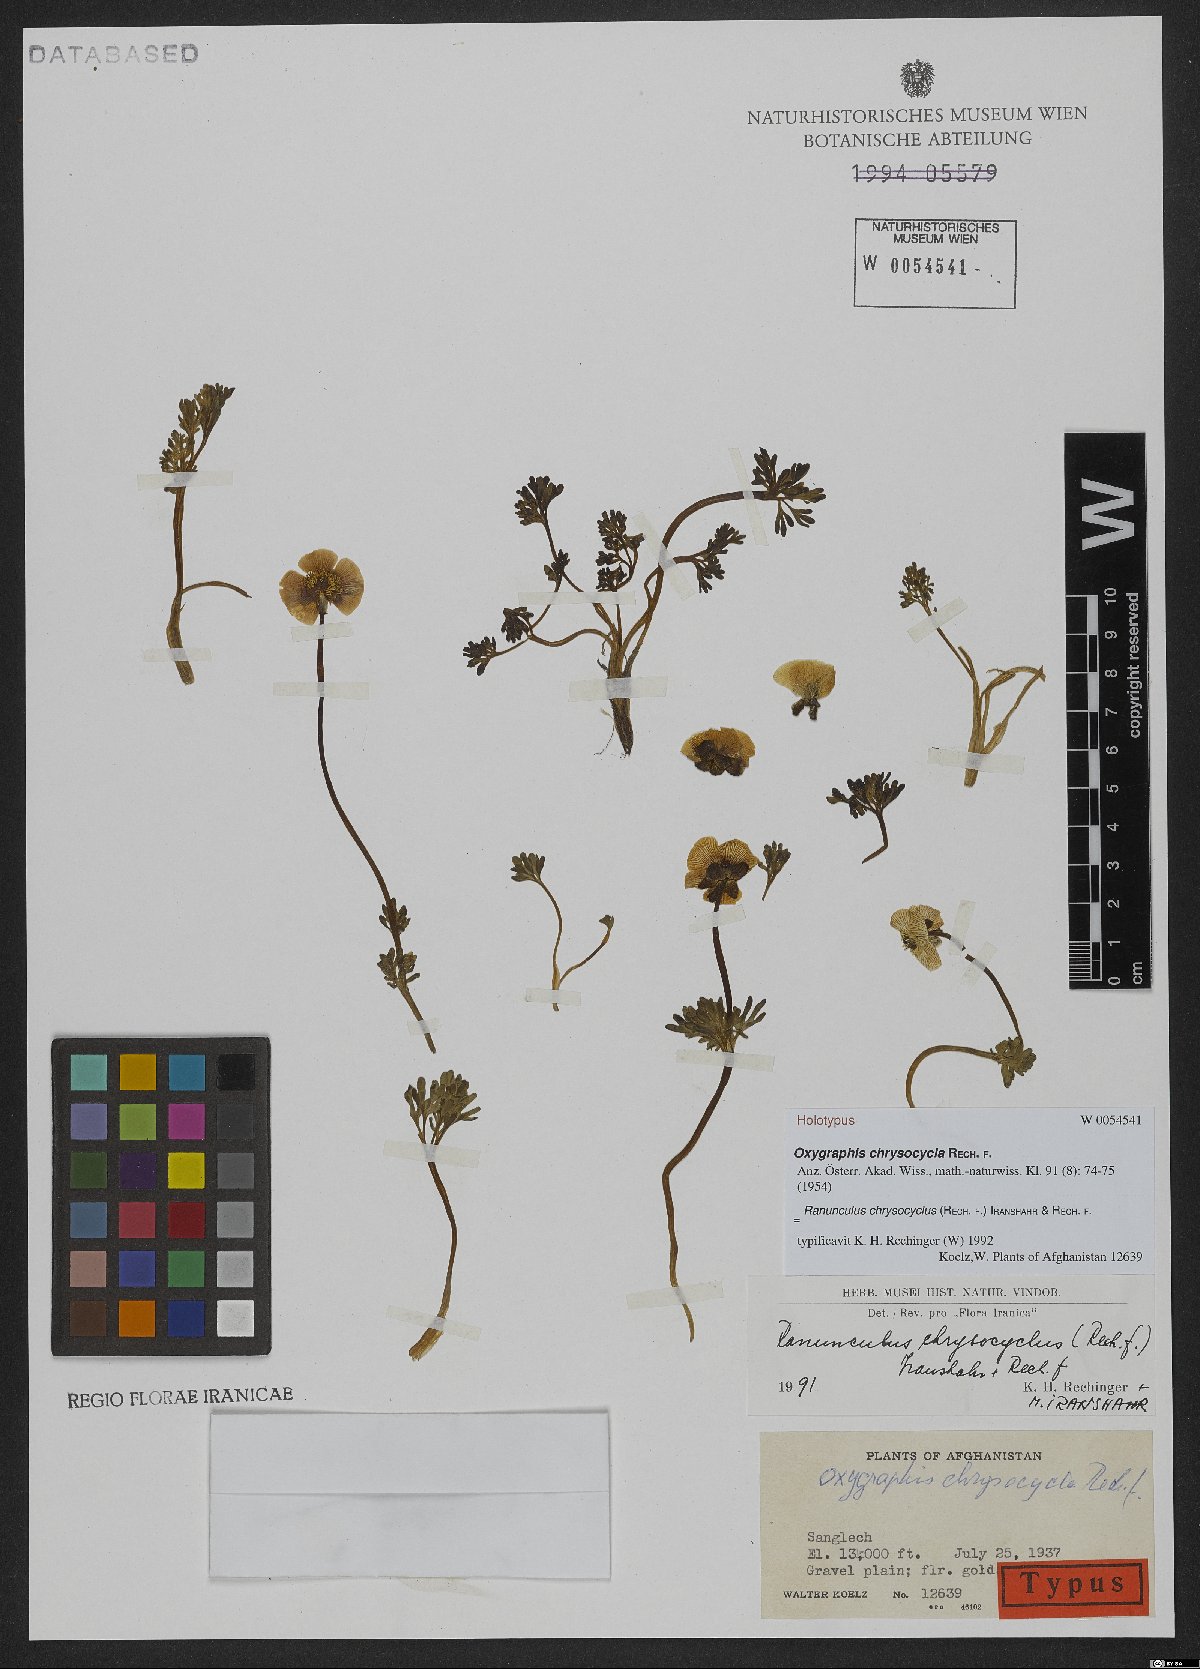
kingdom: Plantae
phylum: Tracheophyta
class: Magnoliopsida
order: Ranunculales
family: Ranunculaceae
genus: Oxygraphis
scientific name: Oxygraphis chrysocycla
